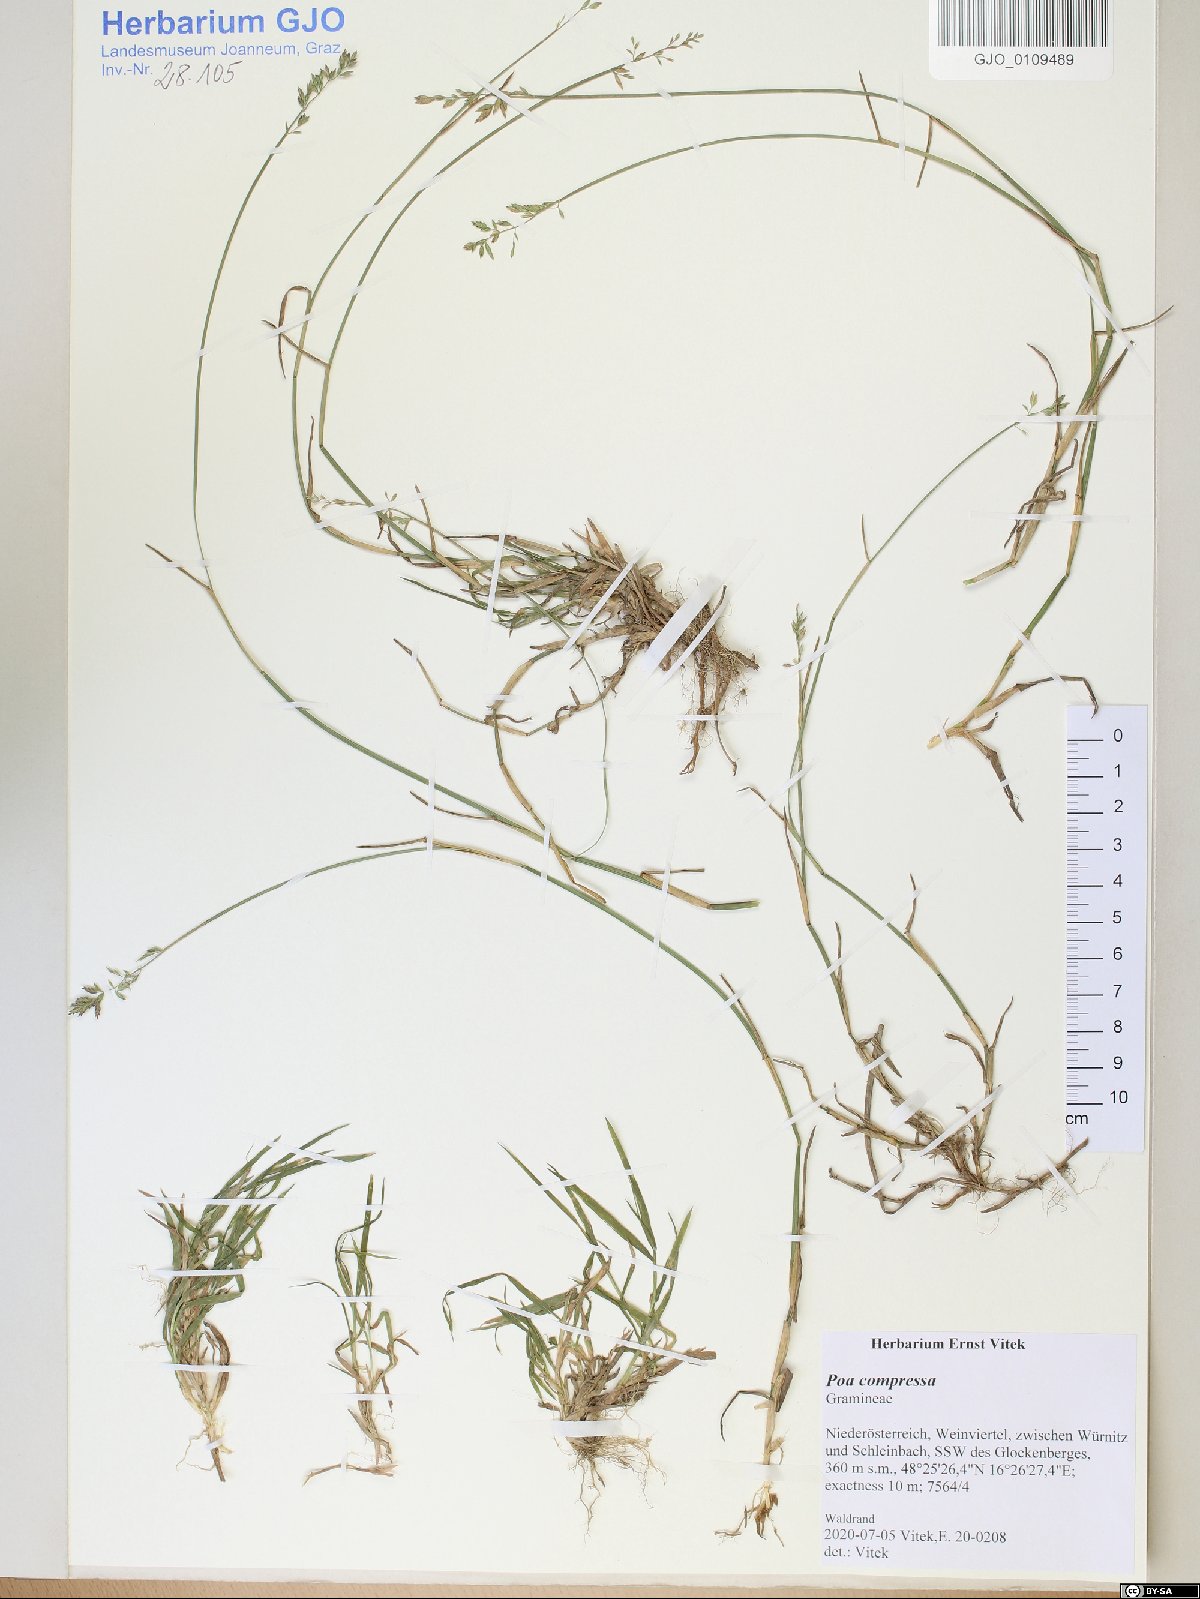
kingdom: Plantae
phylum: Tracheophyta
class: Liliopsida
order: Poales
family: Poaceae
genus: Poa
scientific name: Poa compressa
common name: Canada bluegrass
